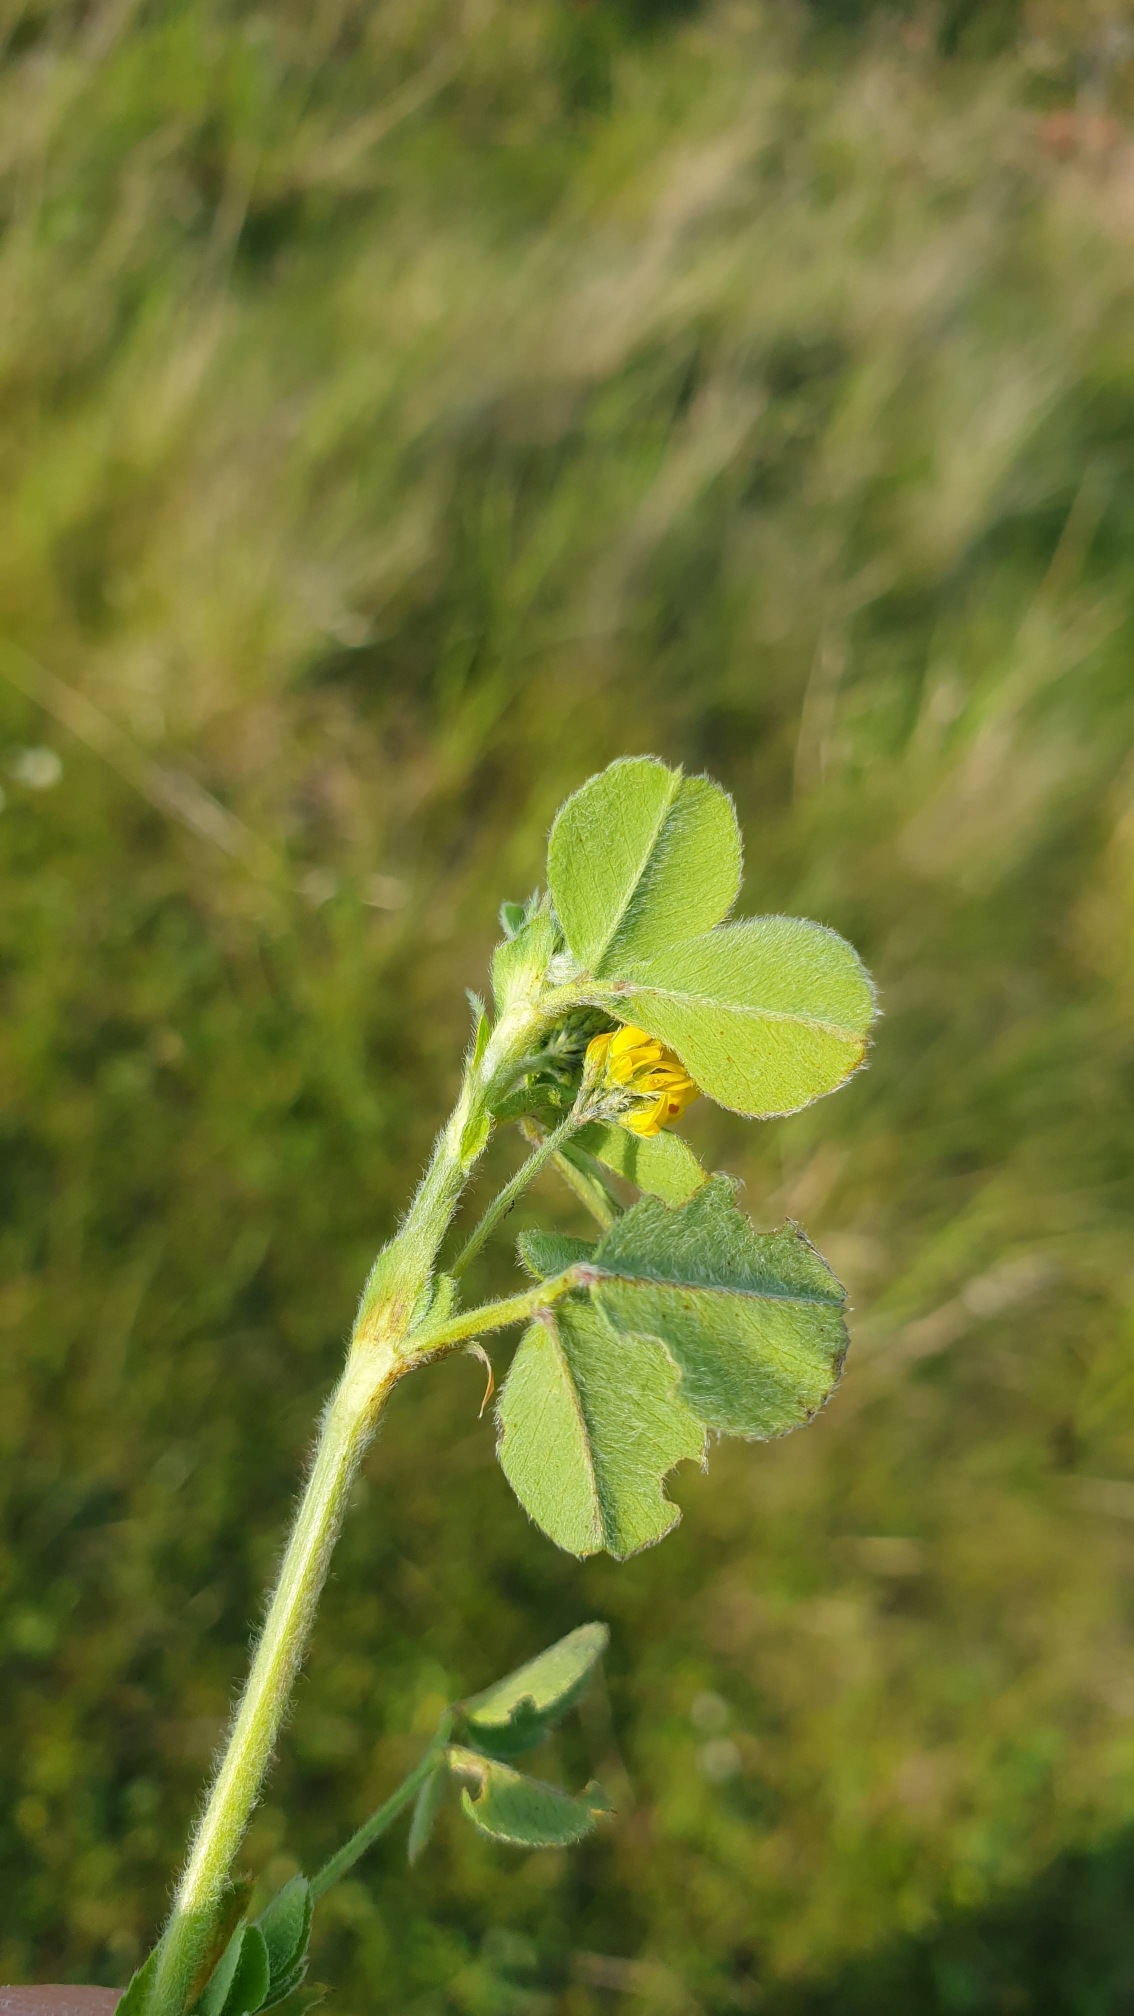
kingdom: Plantae
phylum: Tracheophyta
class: Magnoliopsida
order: Fabales
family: Fabaceae
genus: Medicago
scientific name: Medicago lupulina
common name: Humle-sneglebælg
